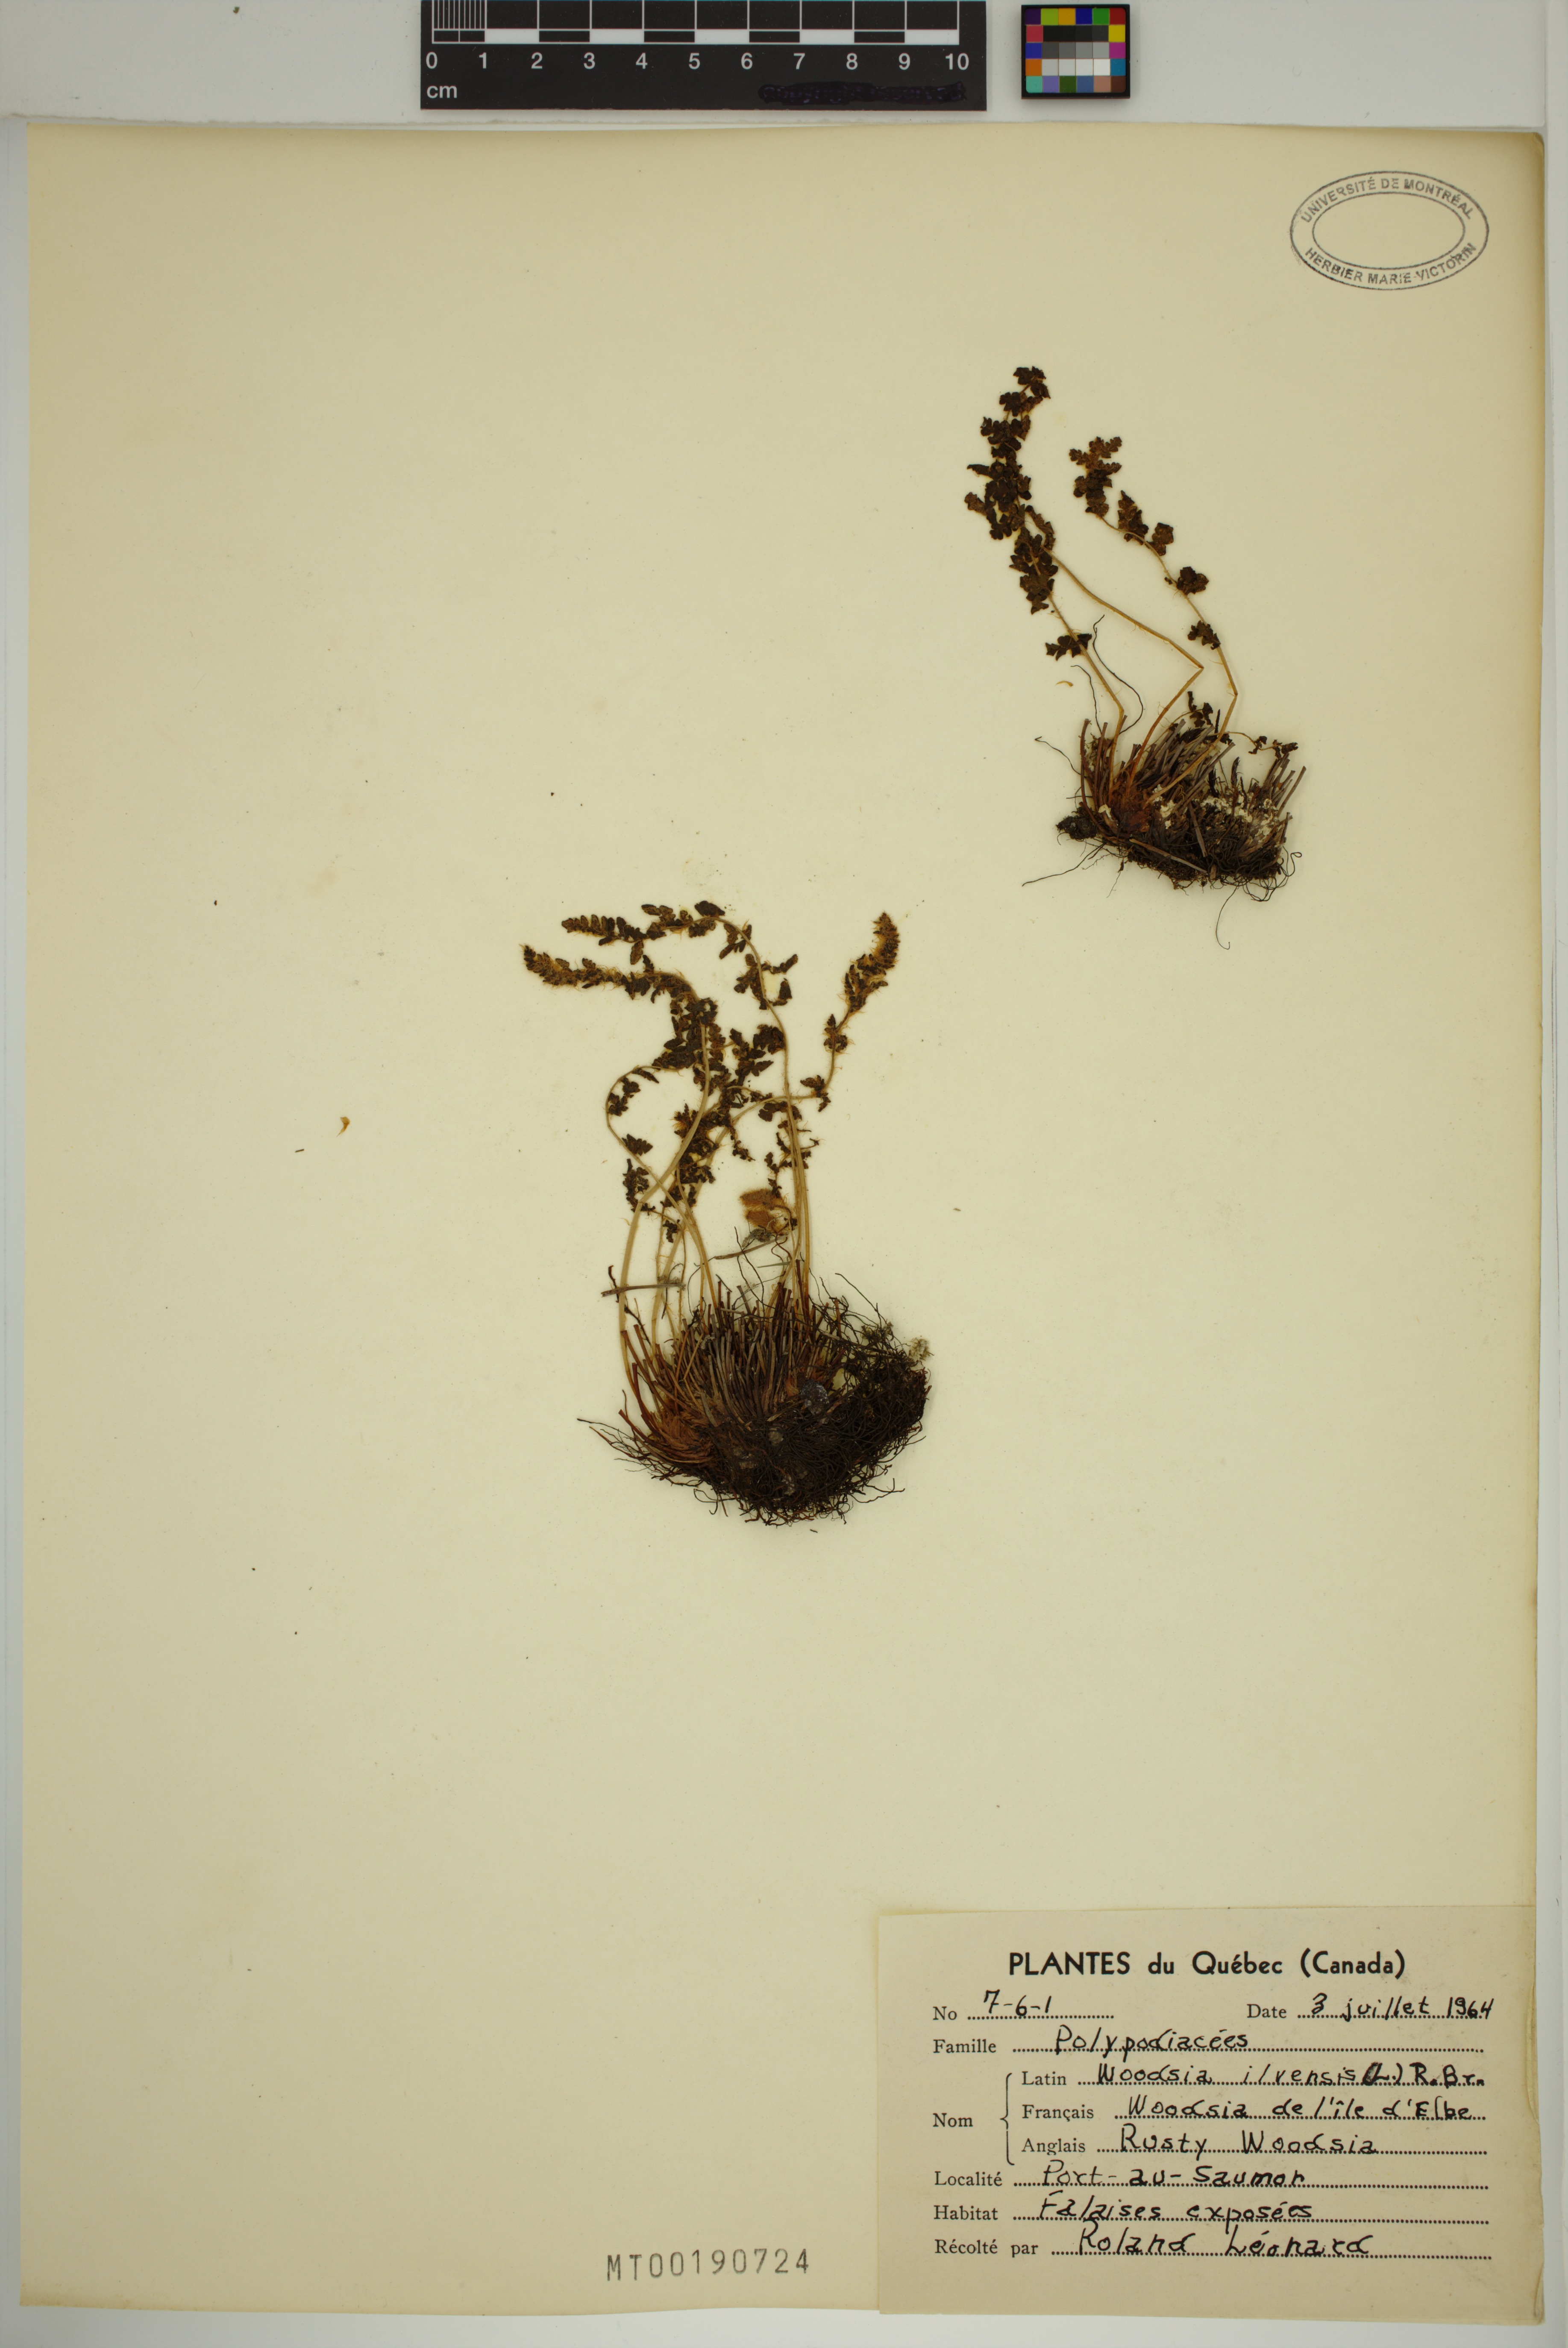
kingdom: Plantae
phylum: Tracheophyta
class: Polypodiopsida
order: Polypodiales
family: Woodsiaceae
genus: Woodsia
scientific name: Woodsia ilvensis
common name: Fragrant woodsia
